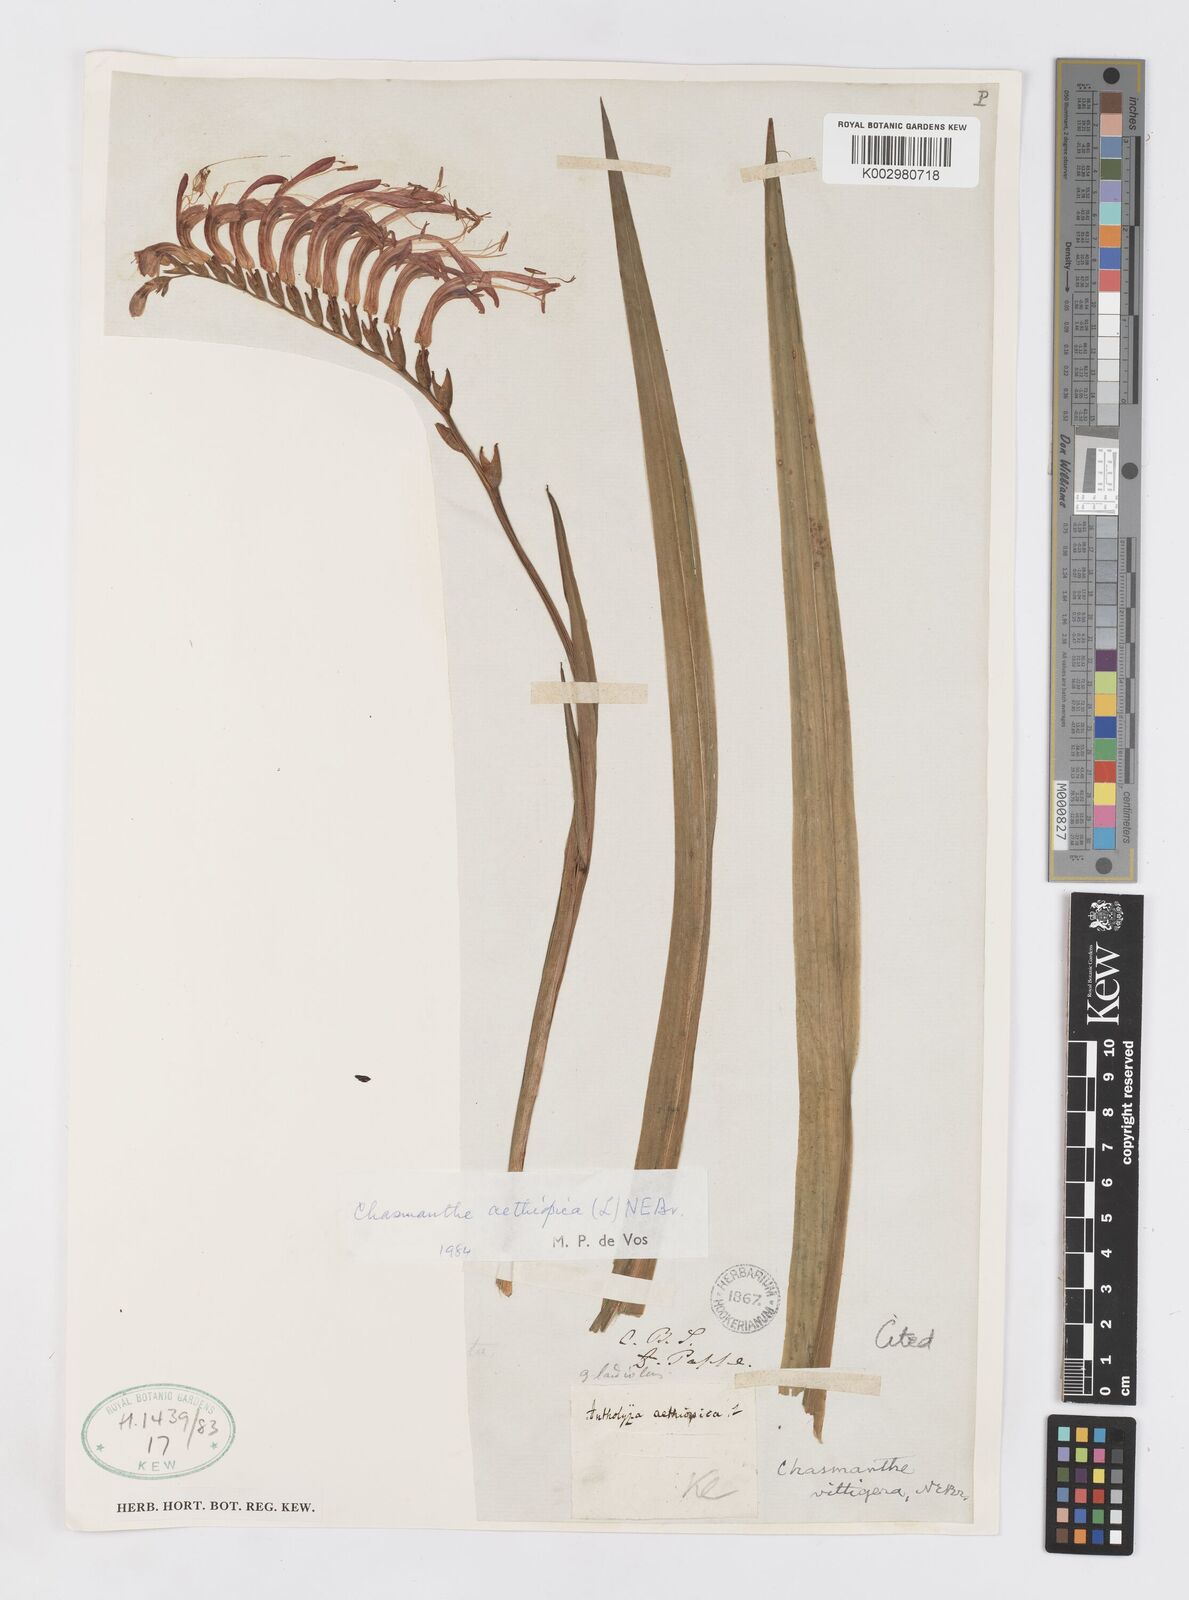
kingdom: Plantae
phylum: Tracheophyta
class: Liliopsida
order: Asparagales
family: Iridaceae
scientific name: Iridaceae
